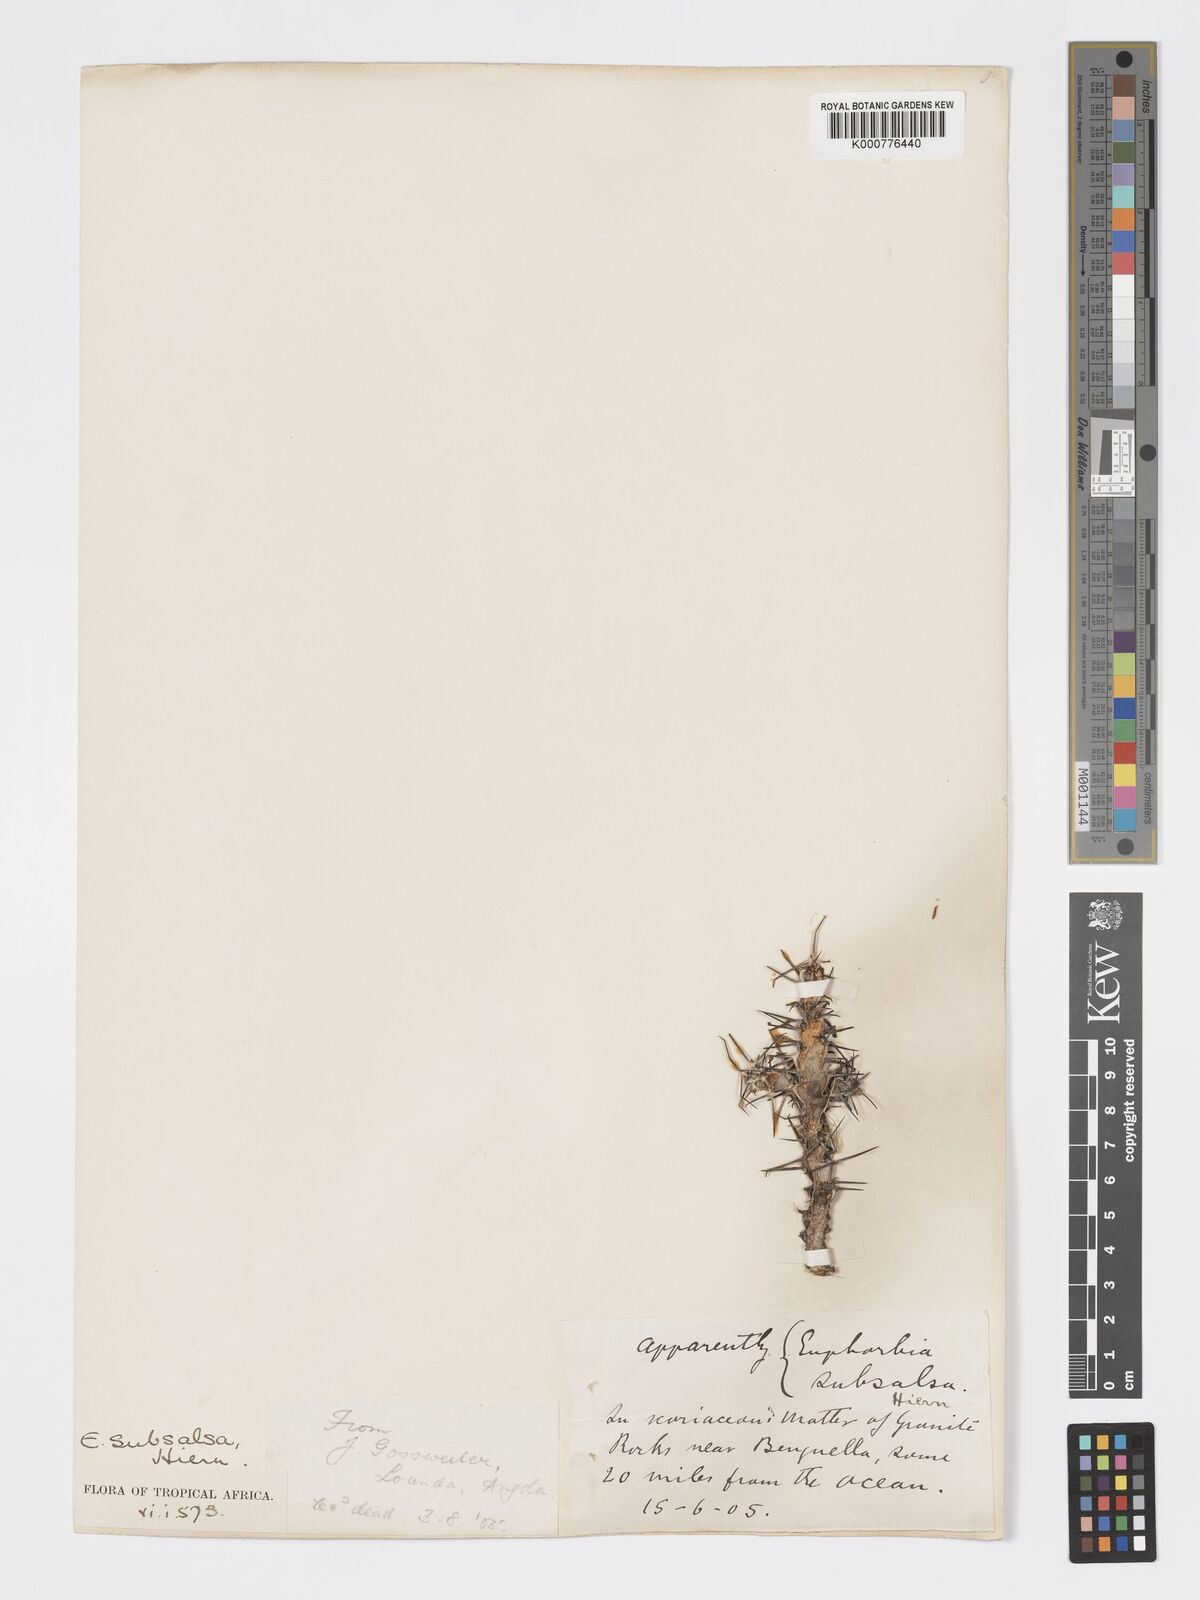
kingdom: Plantae
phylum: Tracheophyta
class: Magnoliopsida
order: Malpighiales
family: Euphorbiaceae
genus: Euphorbia
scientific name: Euphorbia subsalsa
